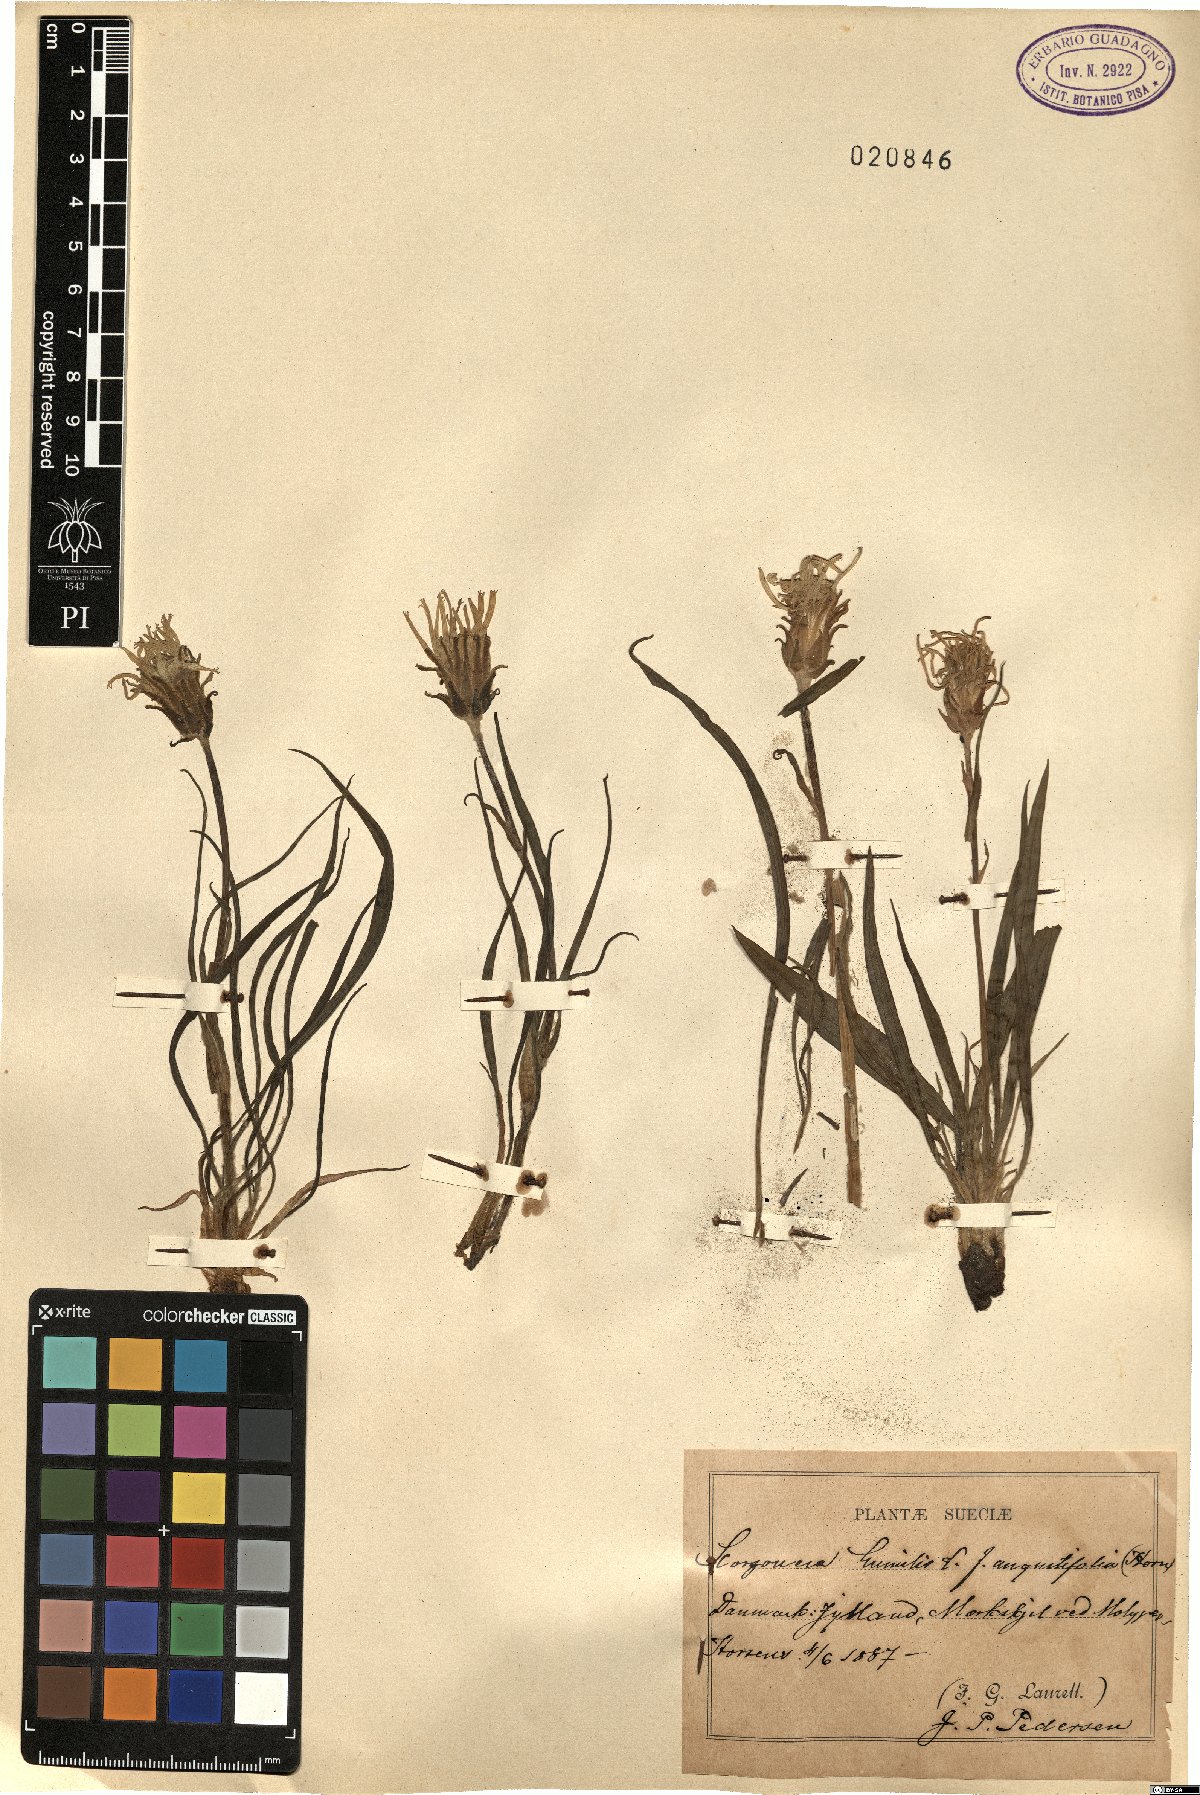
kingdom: Plantae
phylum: Tracheophyta
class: Magnoliopsida
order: Asterales
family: Asteraceae
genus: Scorzonera
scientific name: Scorzonera humilis
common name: Viper's-grass
